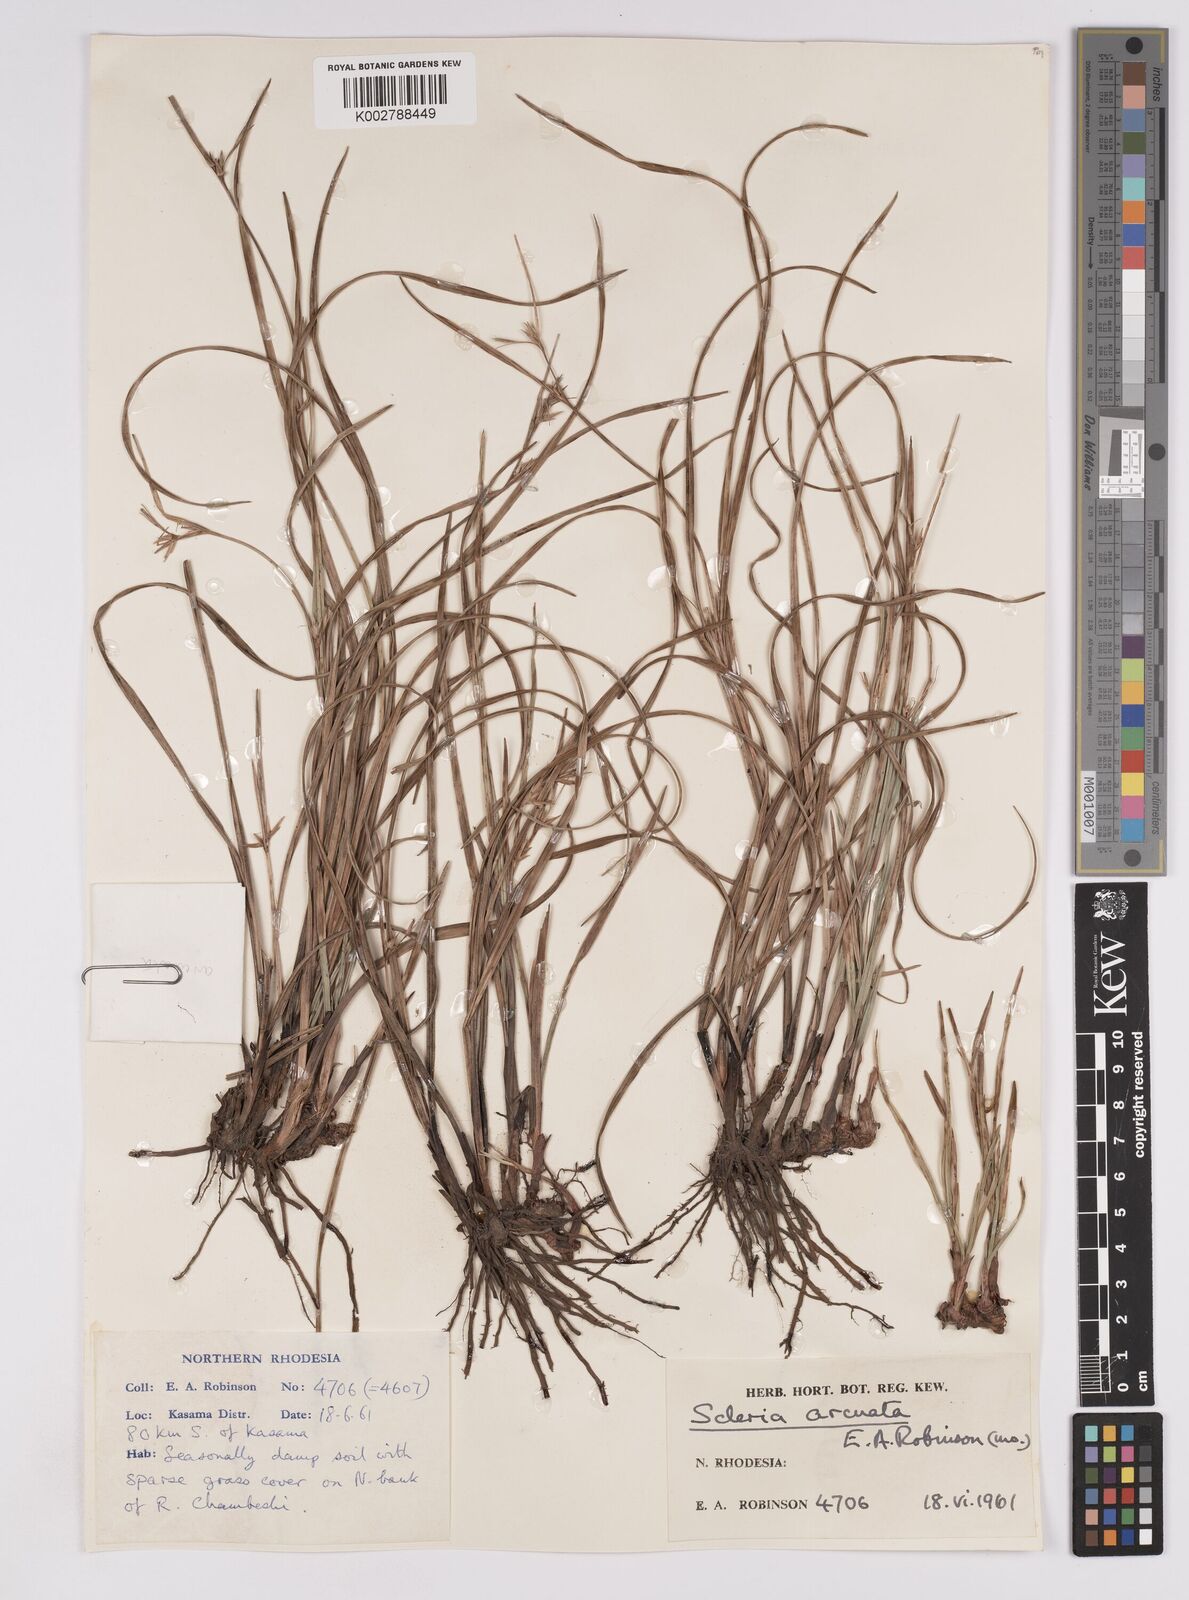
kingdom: Plantae
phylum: Tracheophyta
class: Liliopsida
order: Poales
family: Cyperaceae
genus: Scleria
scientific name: Scleria arcuata
